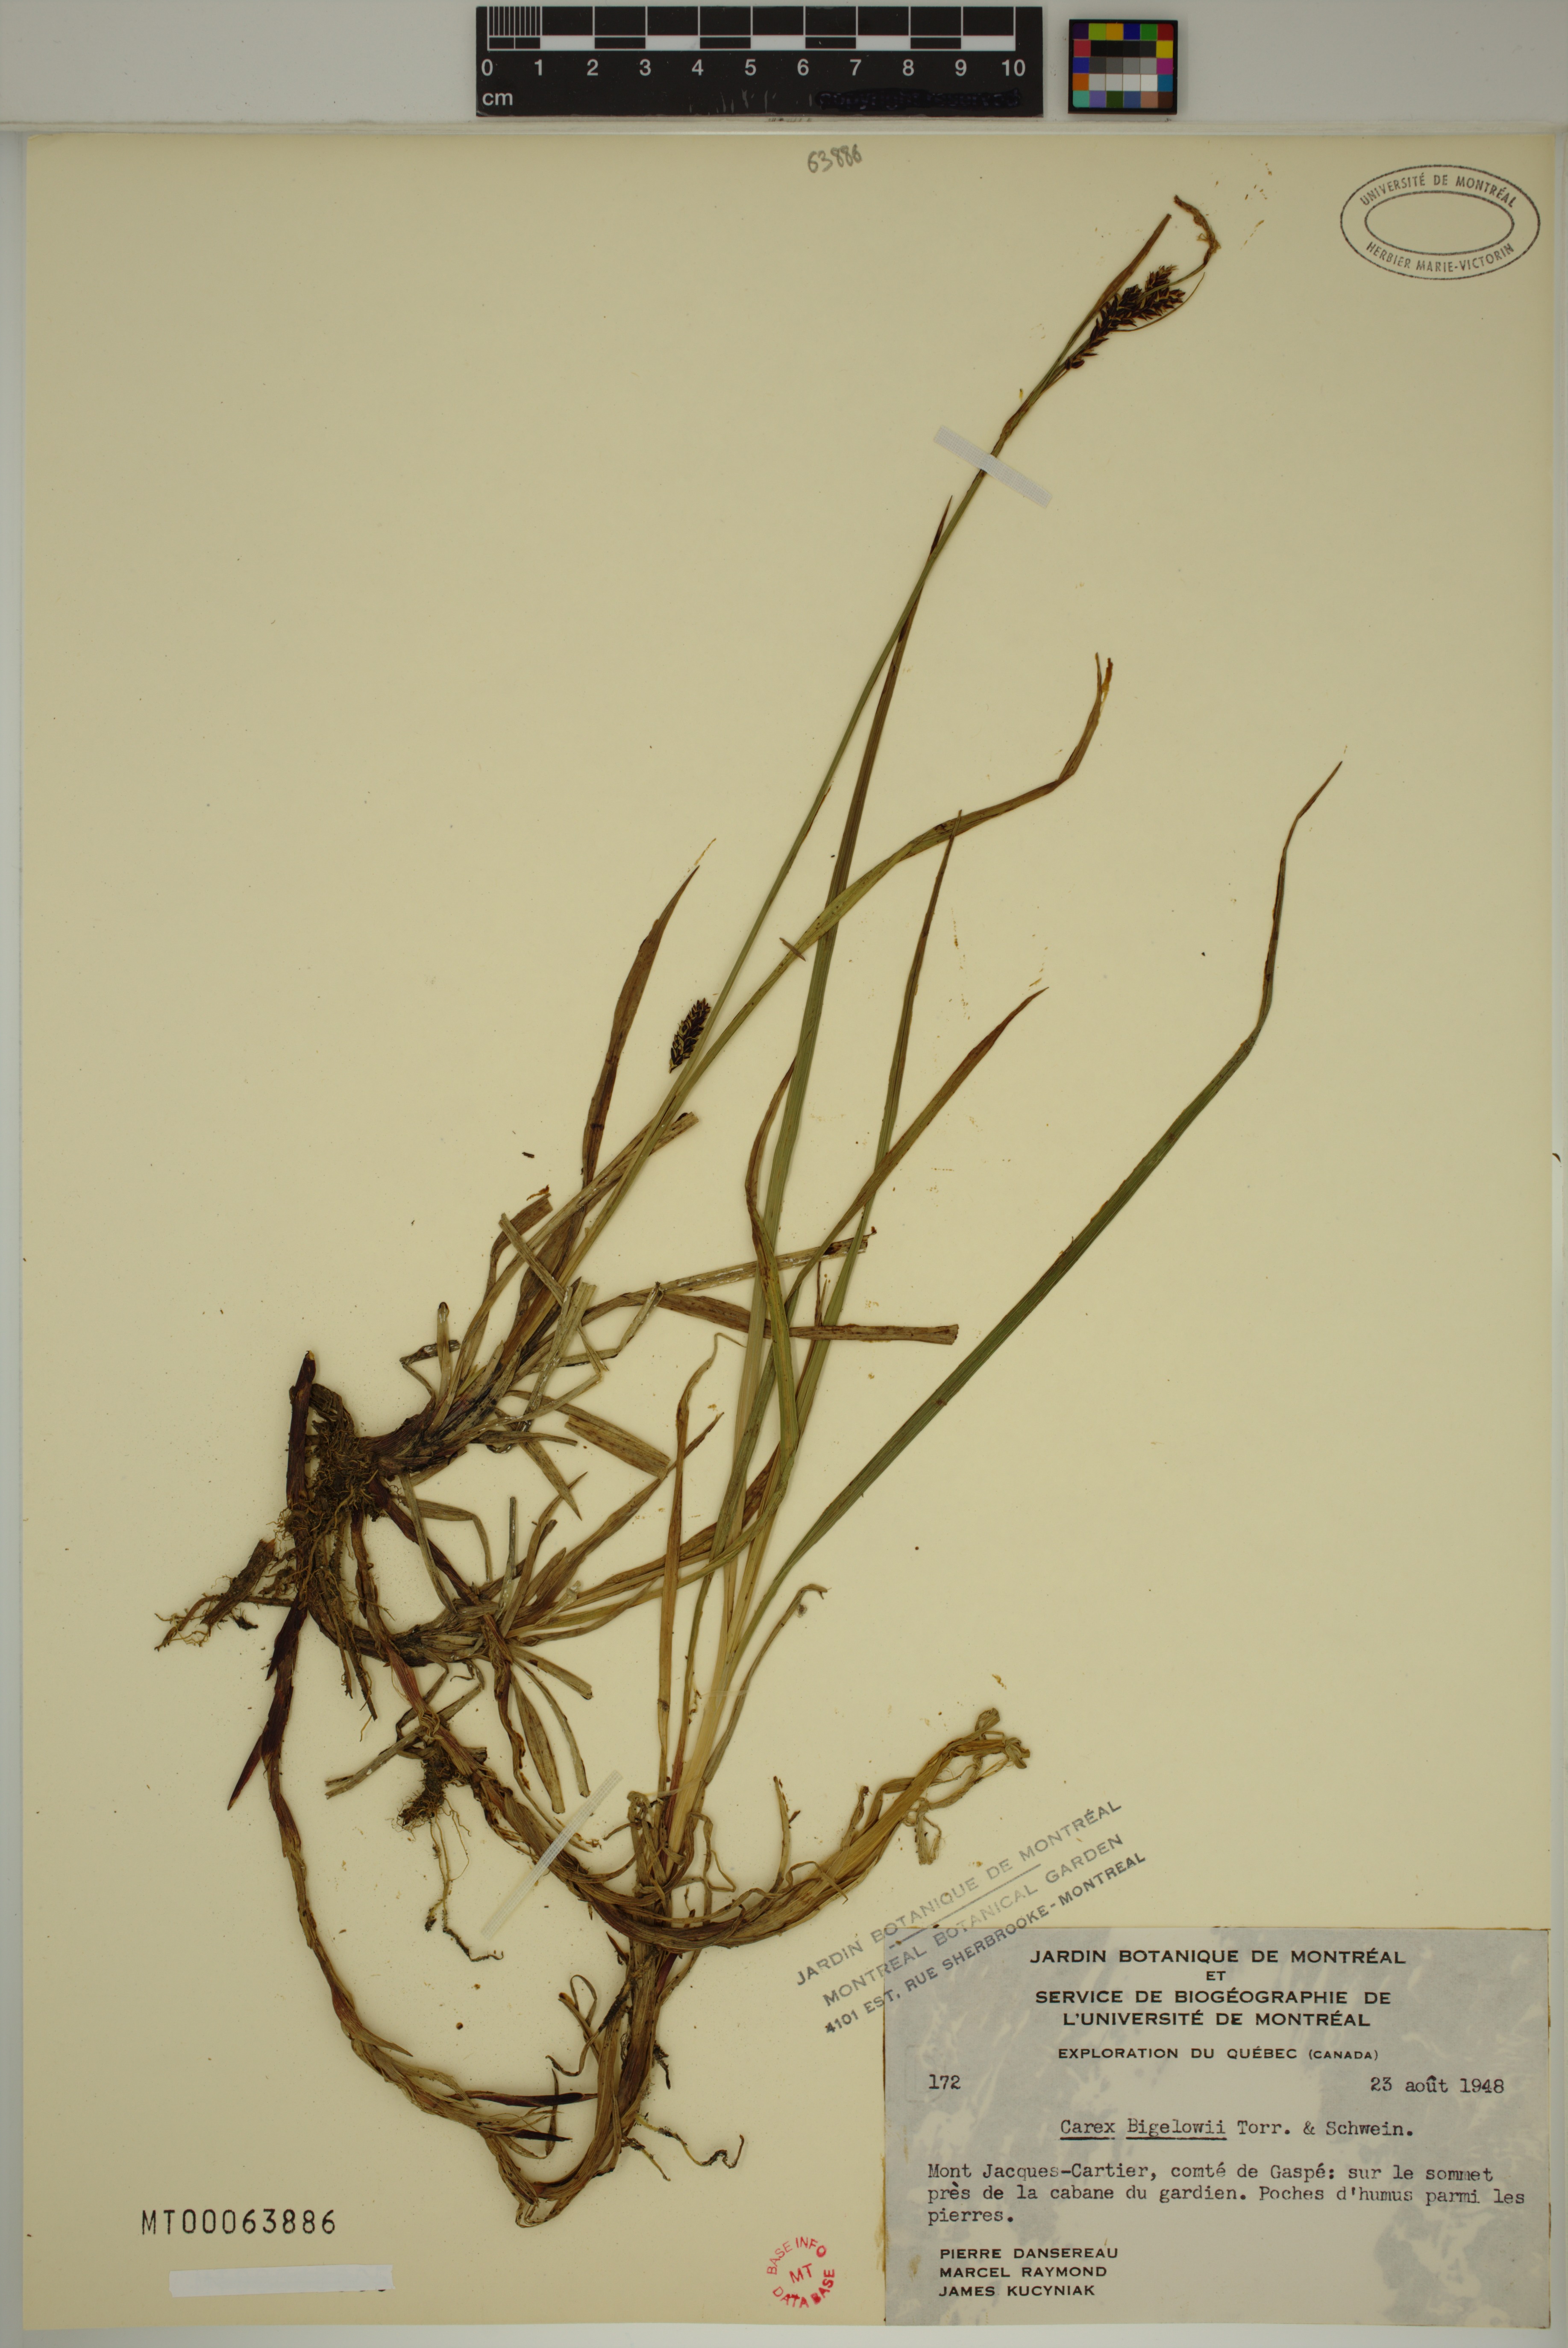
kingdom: Plantae
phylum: Tracheophyta
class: Liliopsida
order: Poales
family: Cyperaceae
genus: Carex
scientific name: Carex bigelowii
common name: Stiff sedge
